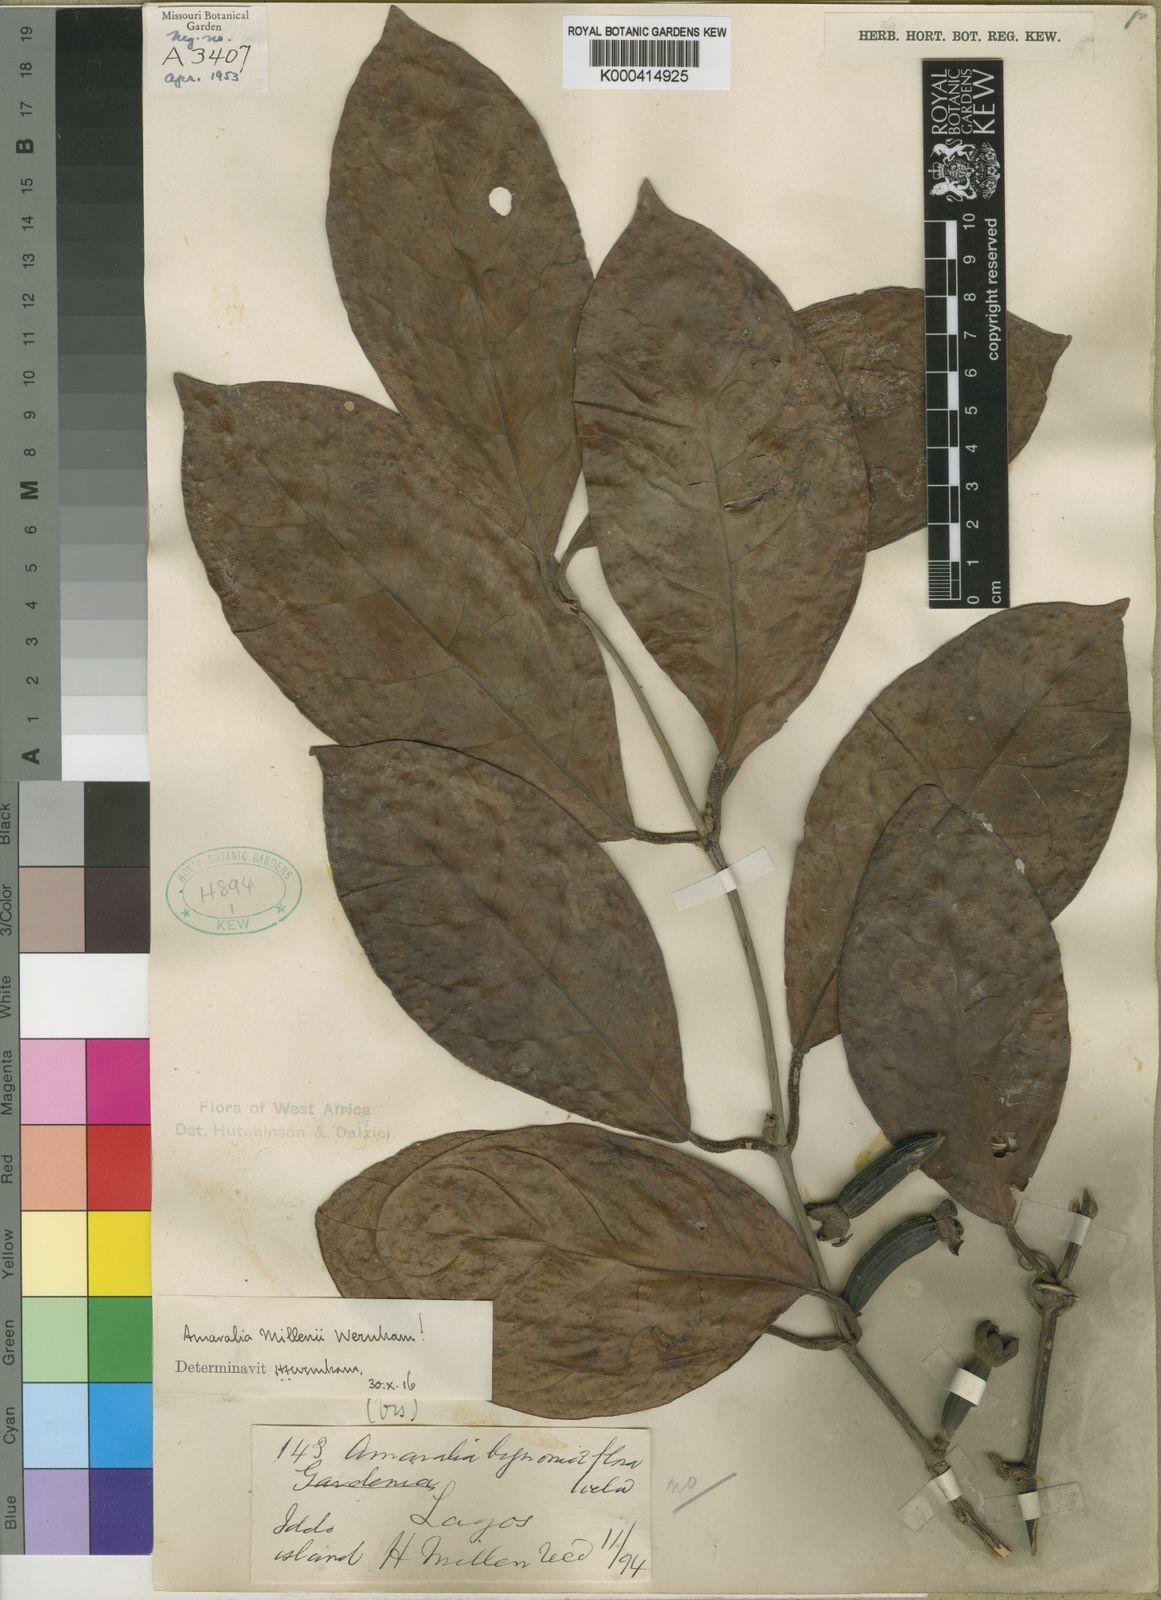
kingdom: Plantae
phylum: Tracheophyta
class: Magnoliopsida
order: Gentianales
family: Rubiaceae
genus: Sherbournia
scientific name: Sherbournia millenii
